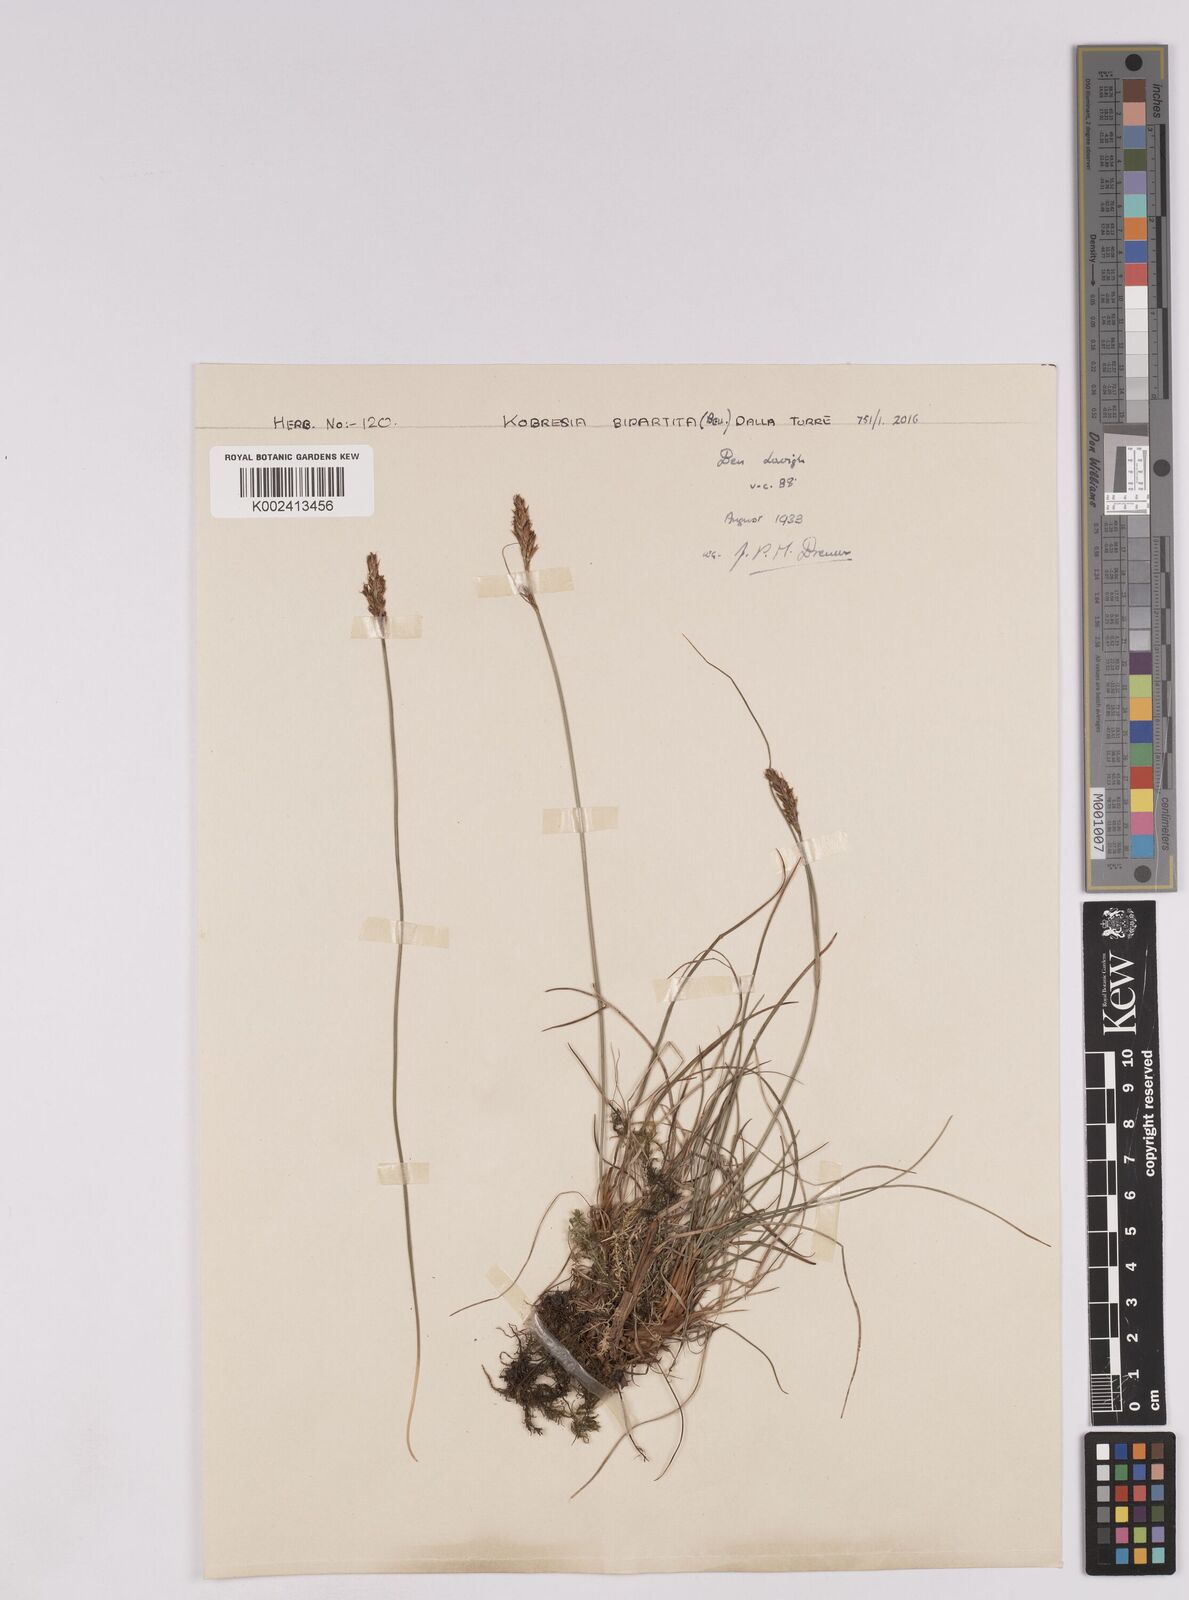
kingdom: Plantae
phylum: Tracheophyta
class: Liliopsida
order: Poales
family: Cyperaceae
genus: Carex
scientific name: Carex simpliciuscula
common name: Simple bog sedge
